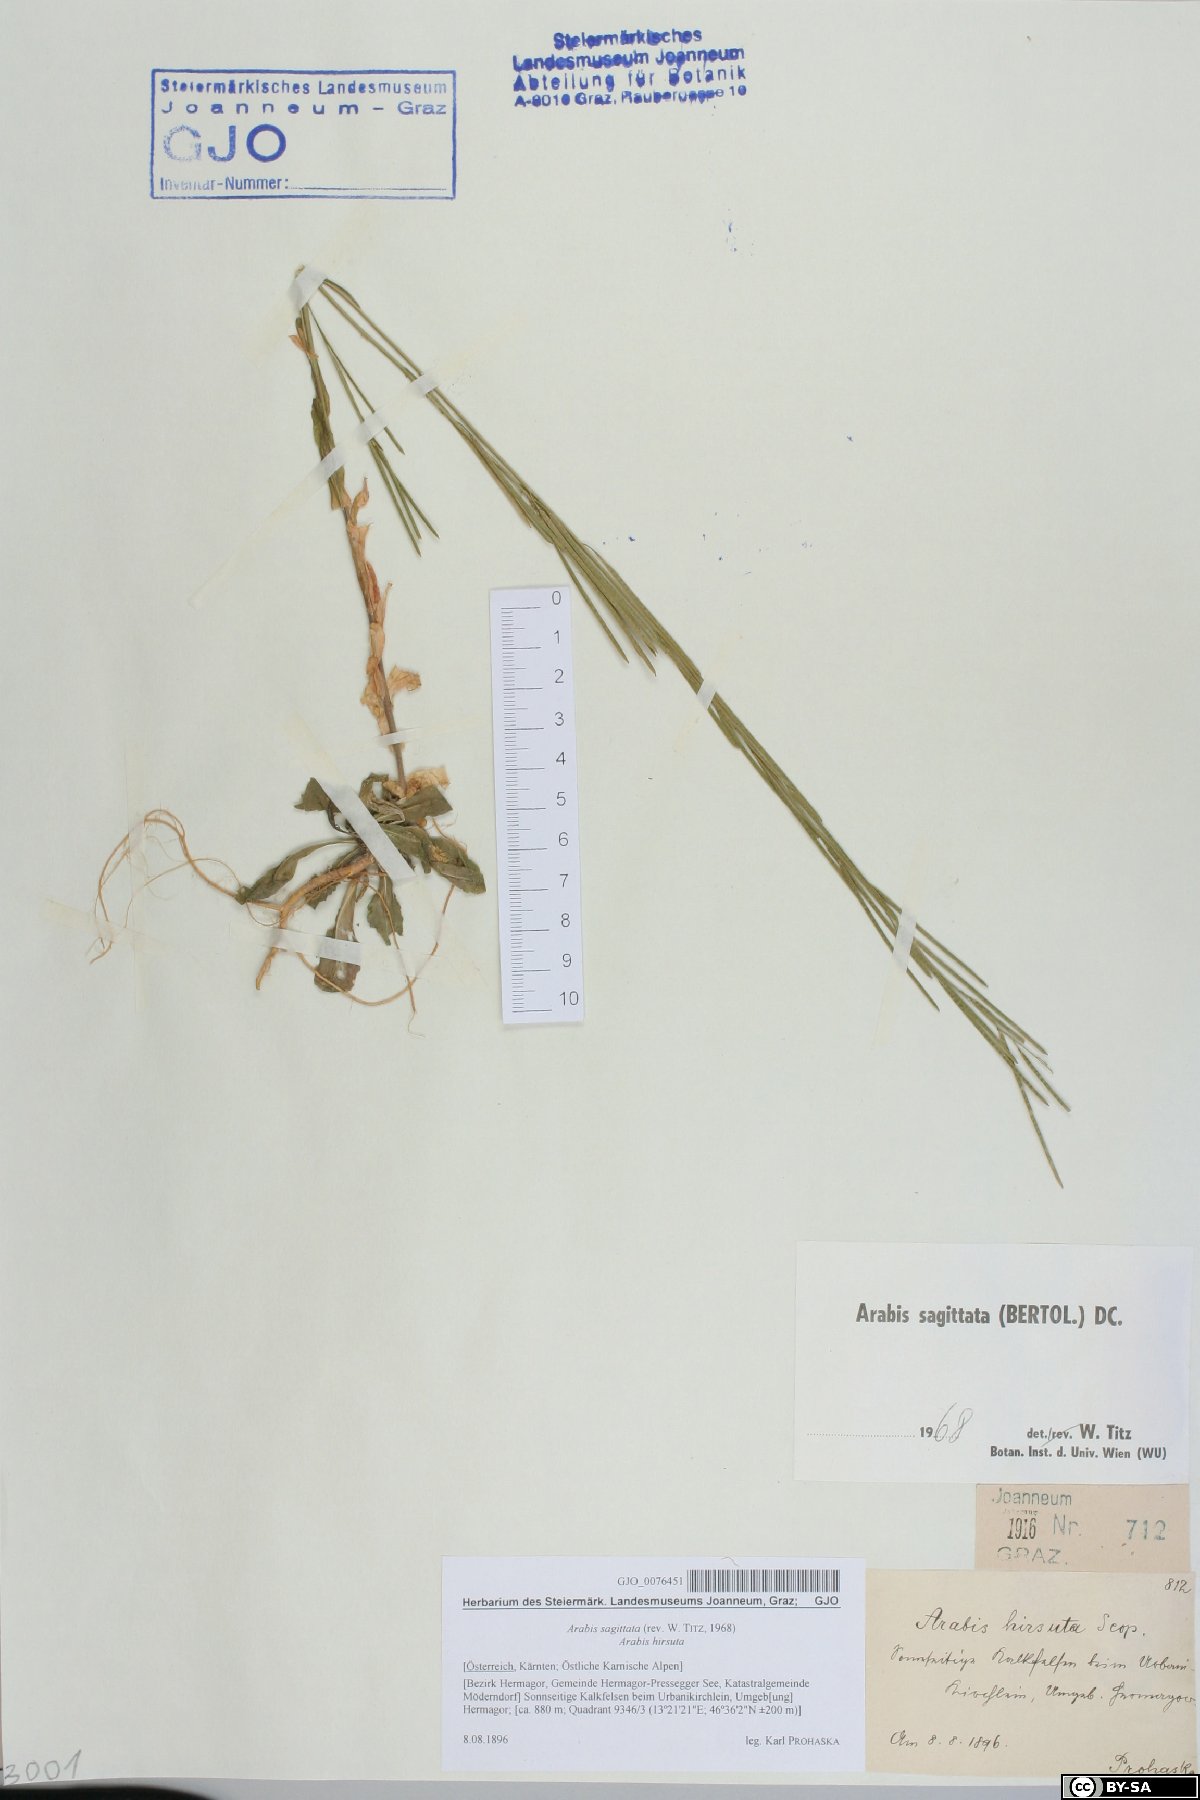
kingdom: Plantae
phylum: Tracheophyta
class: Magnoliopsida
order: Brassicales
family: Brassicaceae
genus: Arabis
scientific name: Arabis sagittata
